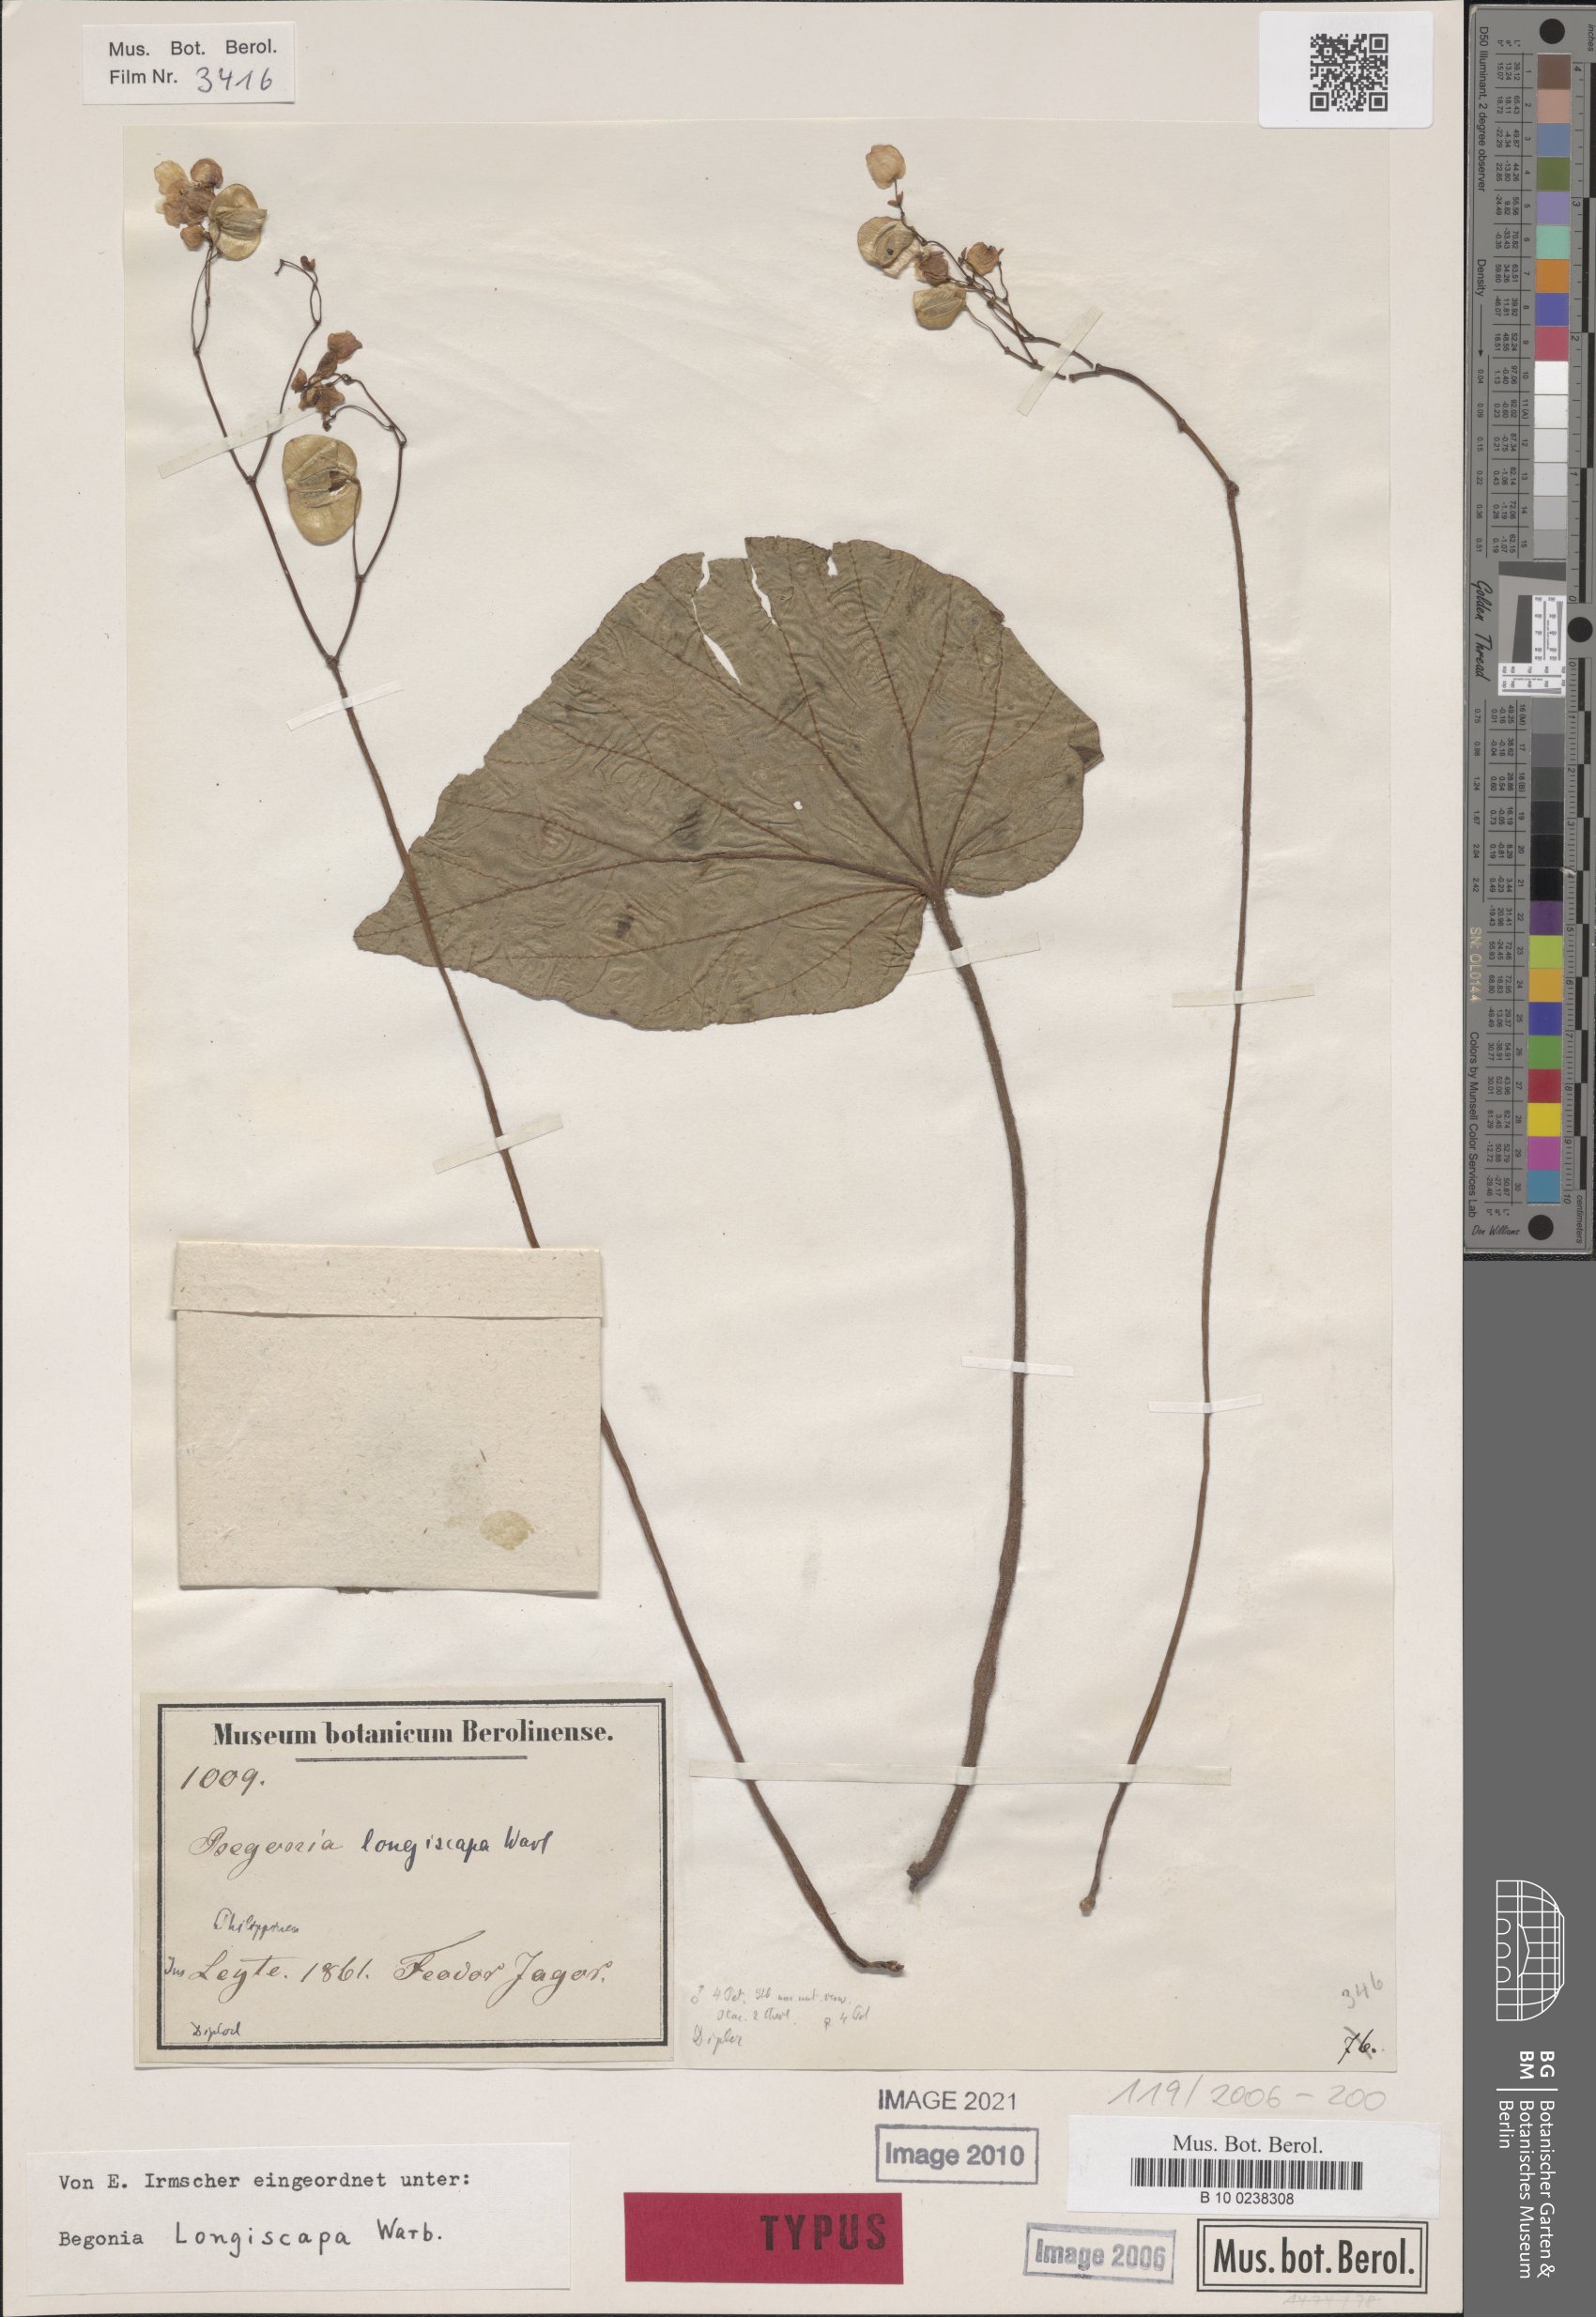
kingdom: Plantae
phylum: Tracheophyta
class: Magnoliopsida
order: Cucurbitales
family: Begoniaceae
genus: Begonia
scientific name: Begonia longiscapa
